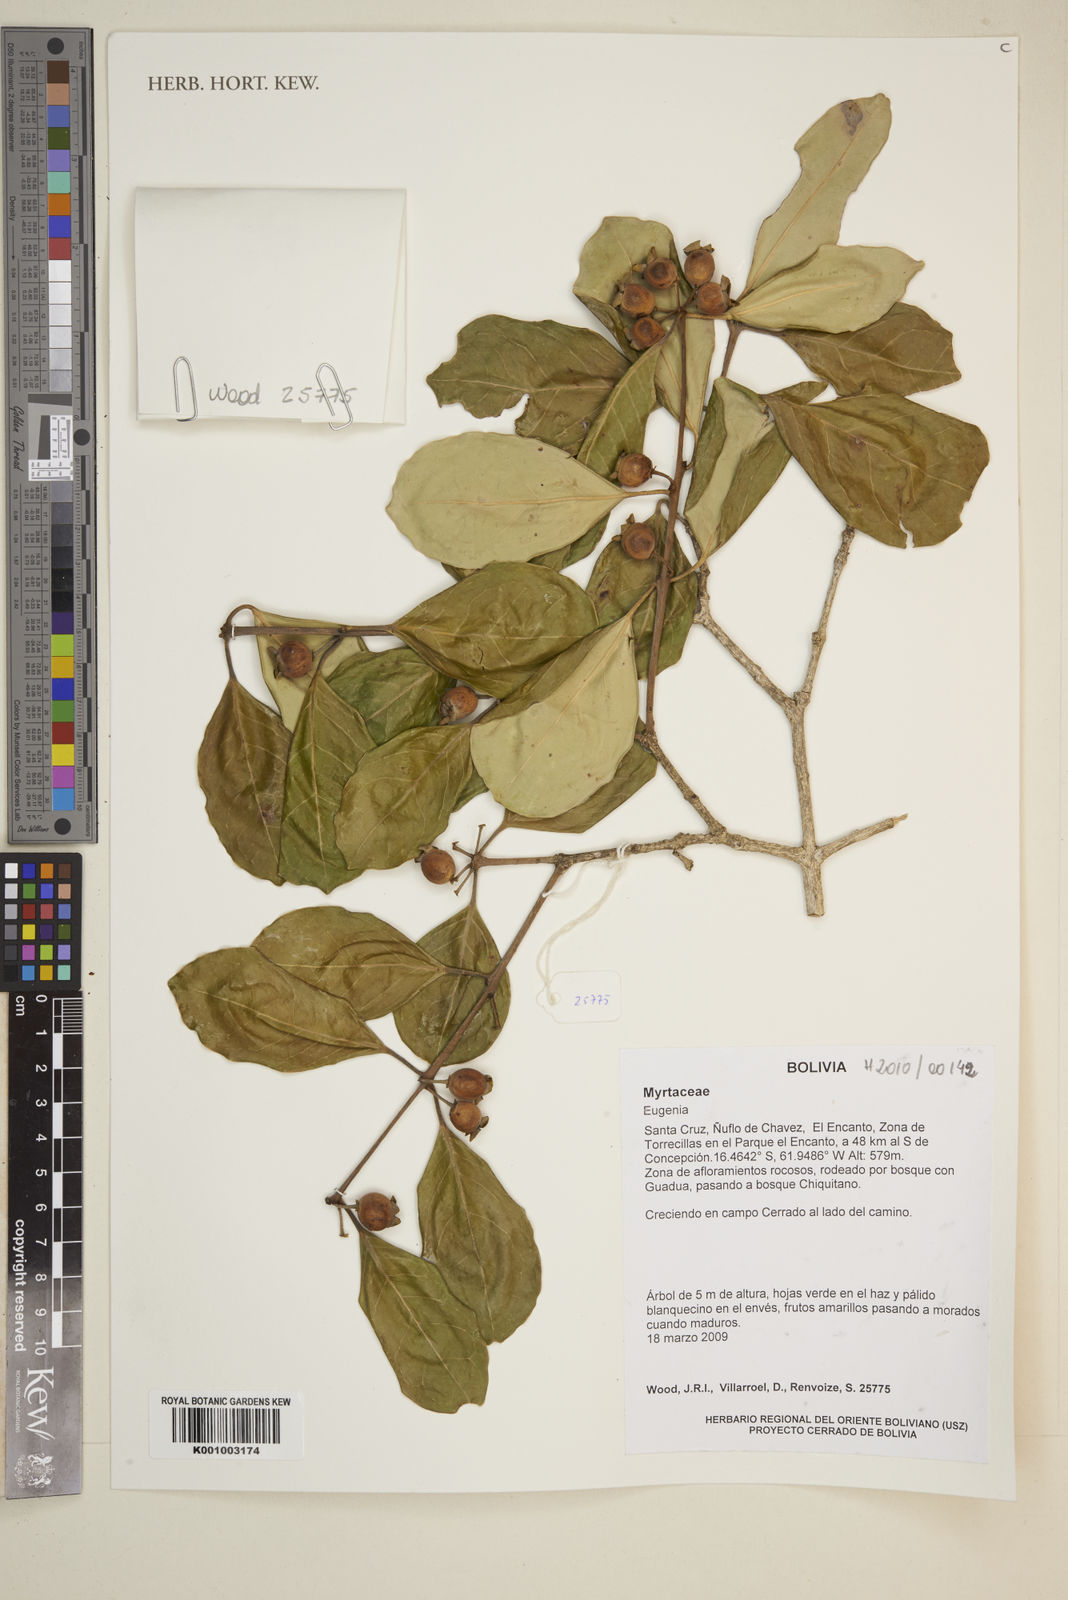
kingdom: Plantae
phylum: Tracheophyta
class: Magnoliopsida
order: Myrtales
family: Myrtaceae
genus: Eugenia
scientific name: Eugenia cydoniifolia
